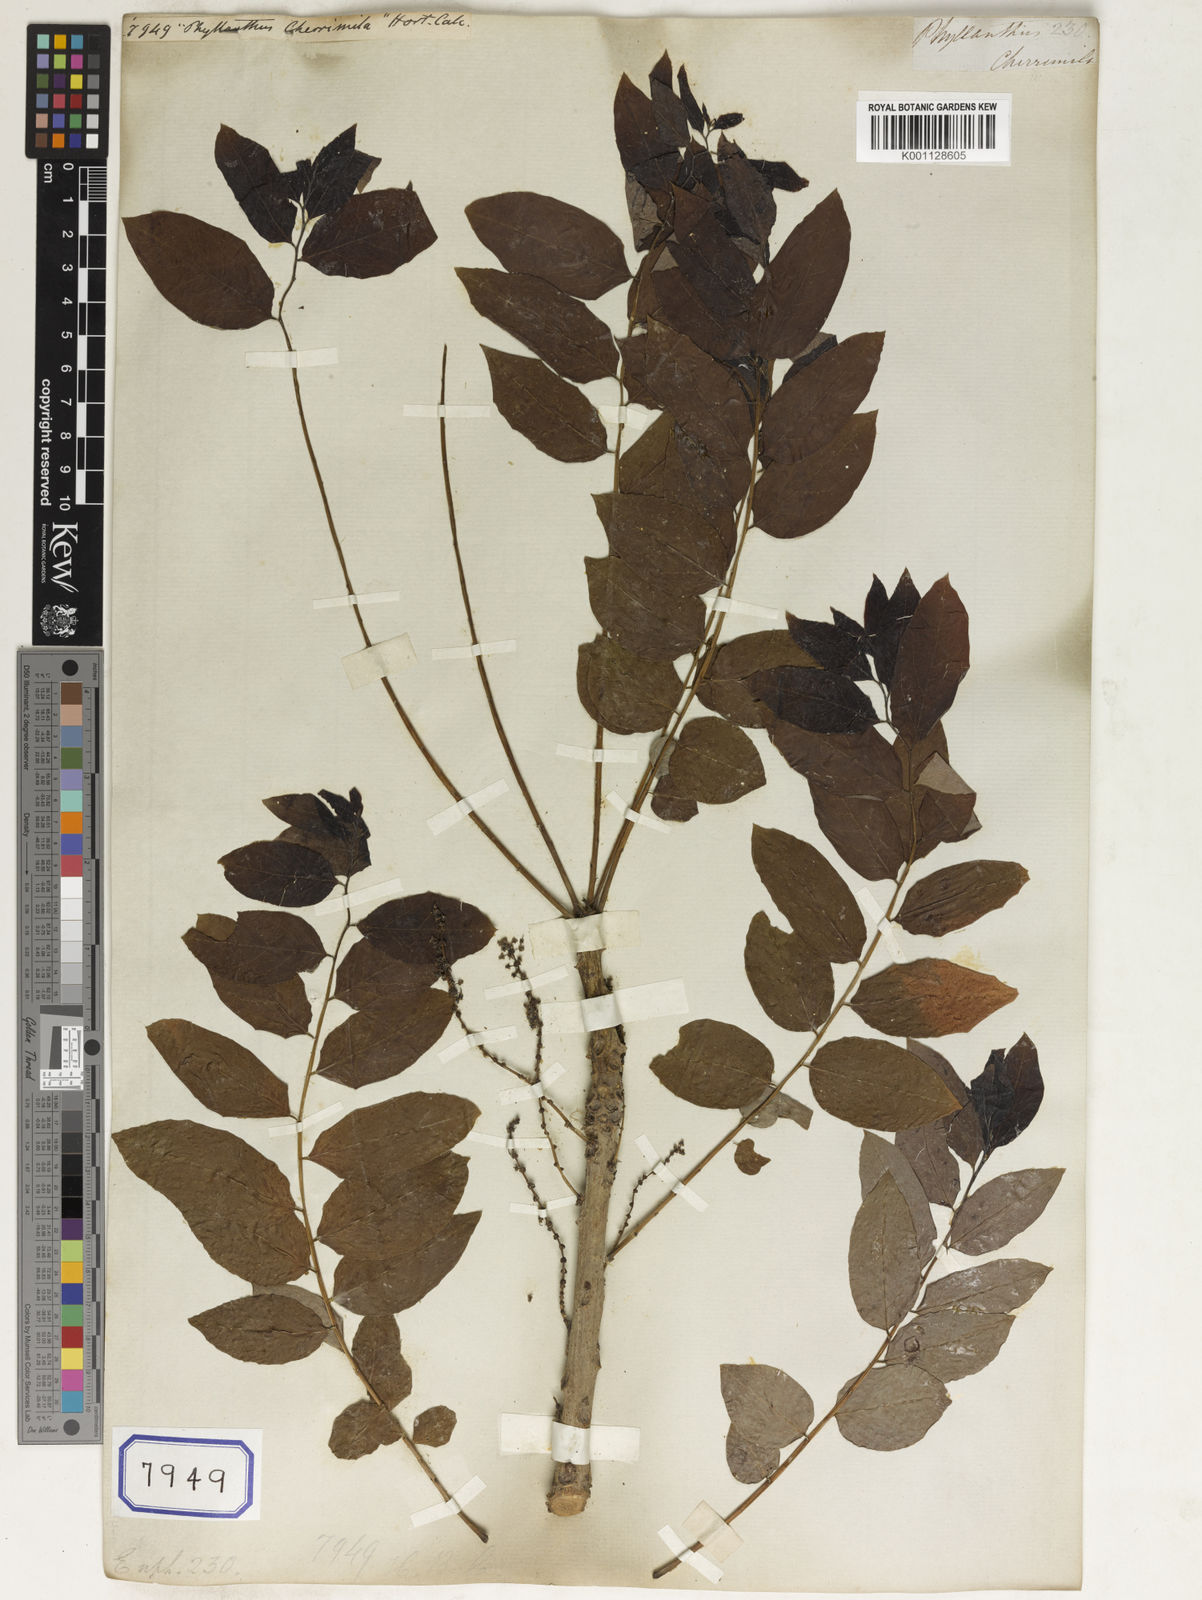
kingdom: Plantae
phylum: Tracheophyta
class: Magnoliopsida
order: Malpighiales
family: Euphorbiaceae
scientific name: Euphorbiaceae
